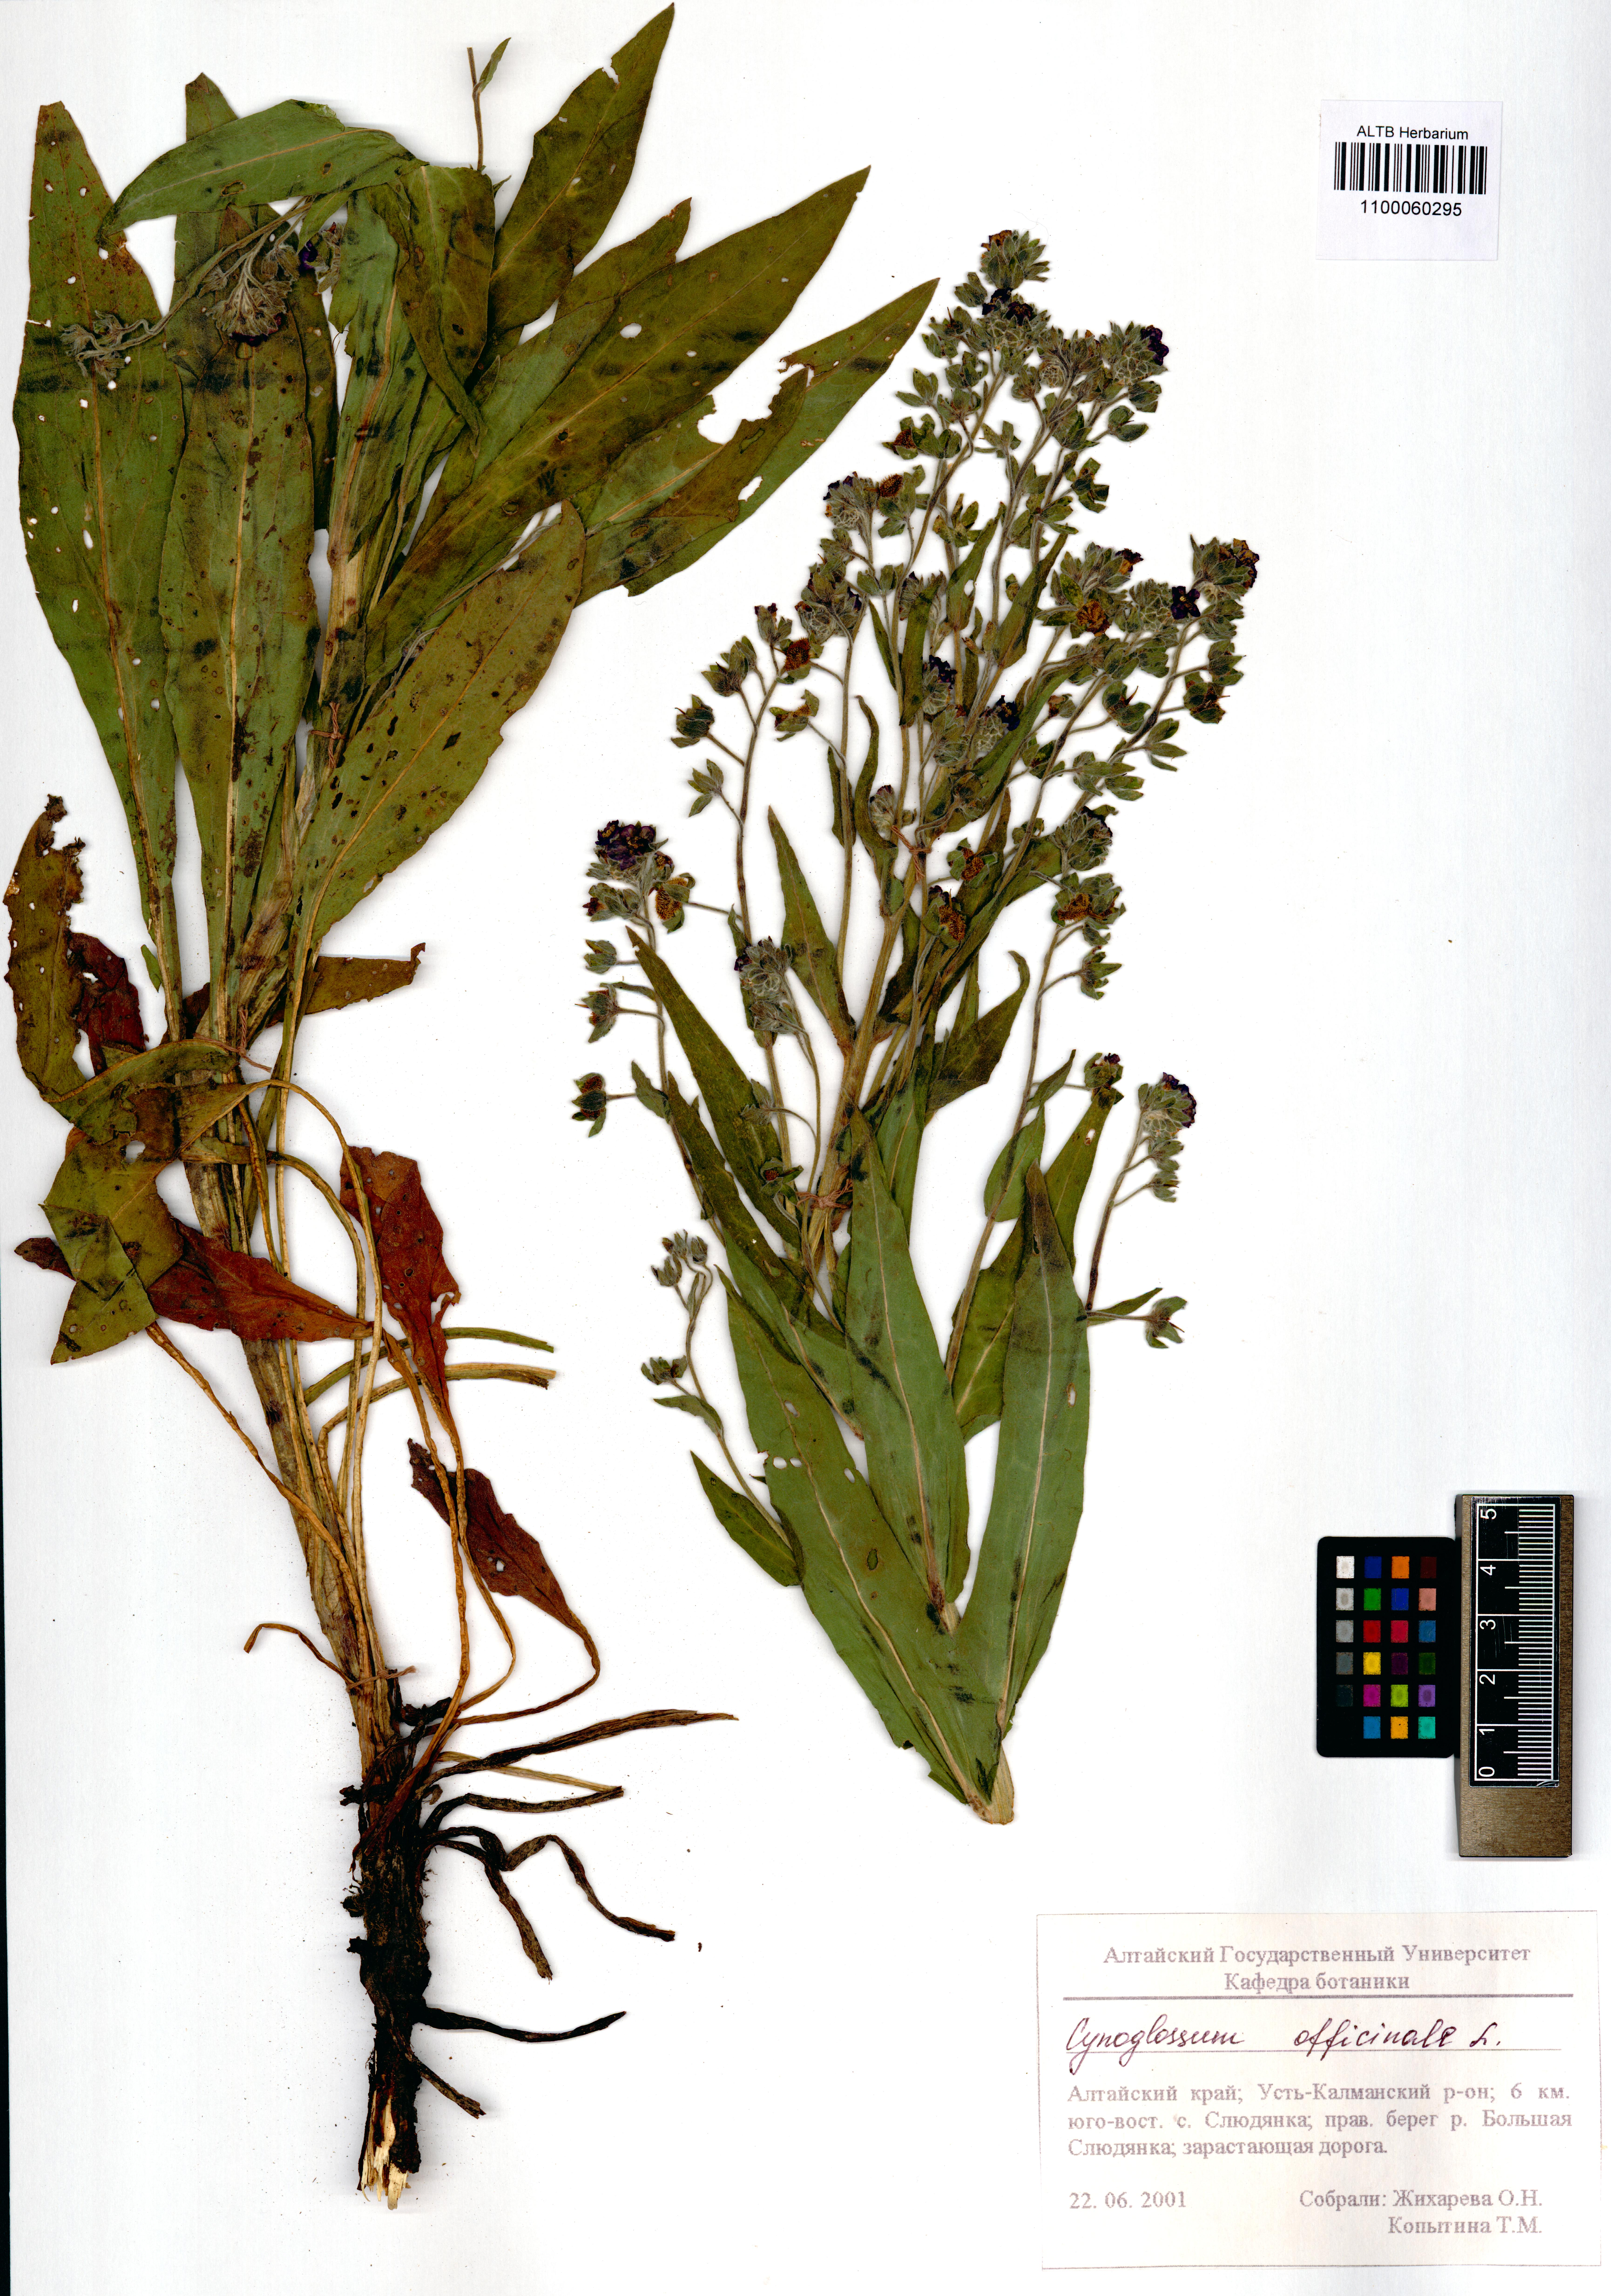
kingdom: Plantae
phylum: Tracheophyta
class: Magnoliopsida
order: Boraginales
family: Boraginaceae
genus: Cynoglossum
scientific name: Cynoglossum officinale
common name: Hound's-tongue
